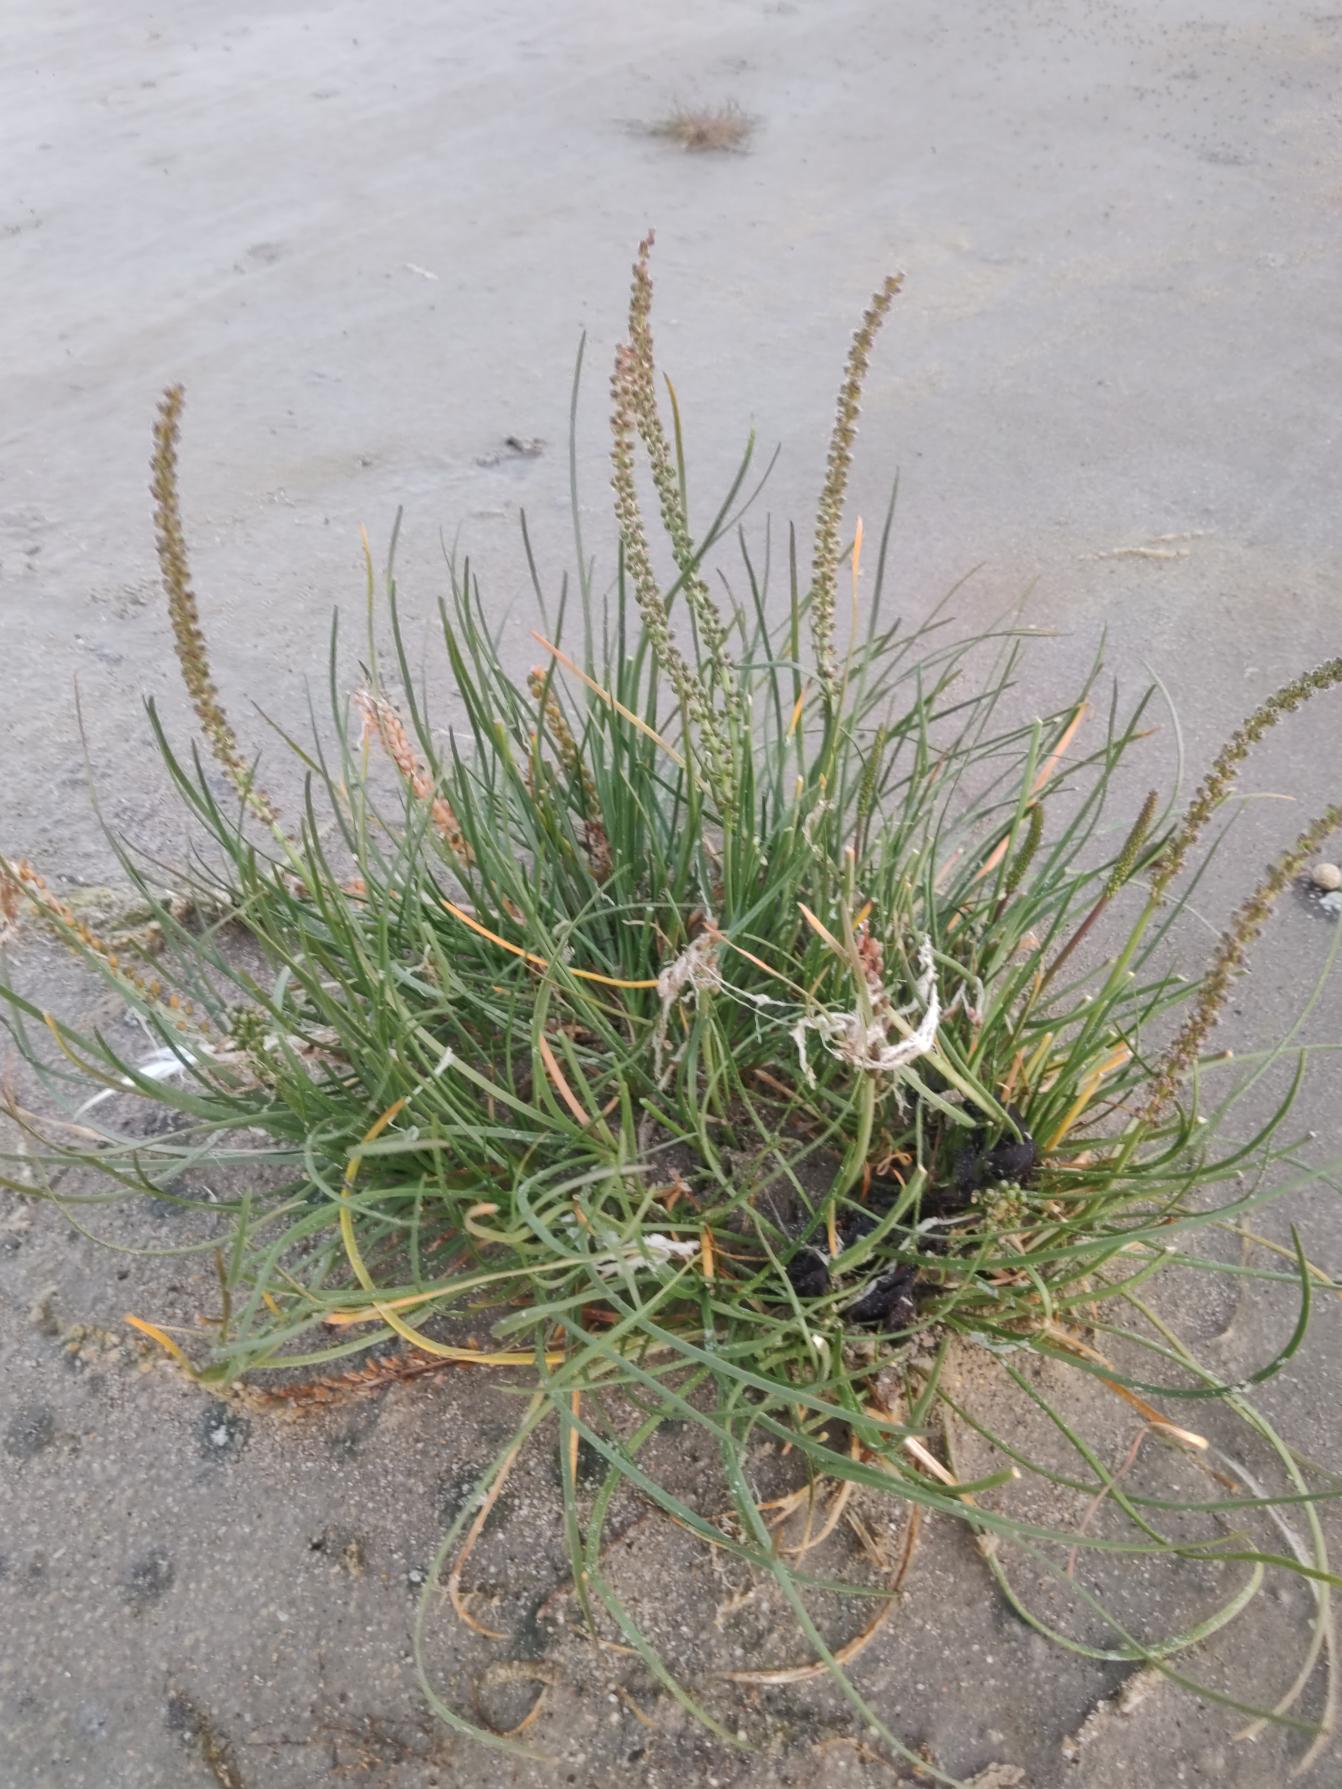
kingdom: Plantae
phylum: Tracheophyta
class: Liliopsida
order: Alismatales
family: Juncaginaceae
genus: Triglochin
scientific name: Triglochin maritima
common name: Strand-trehage
